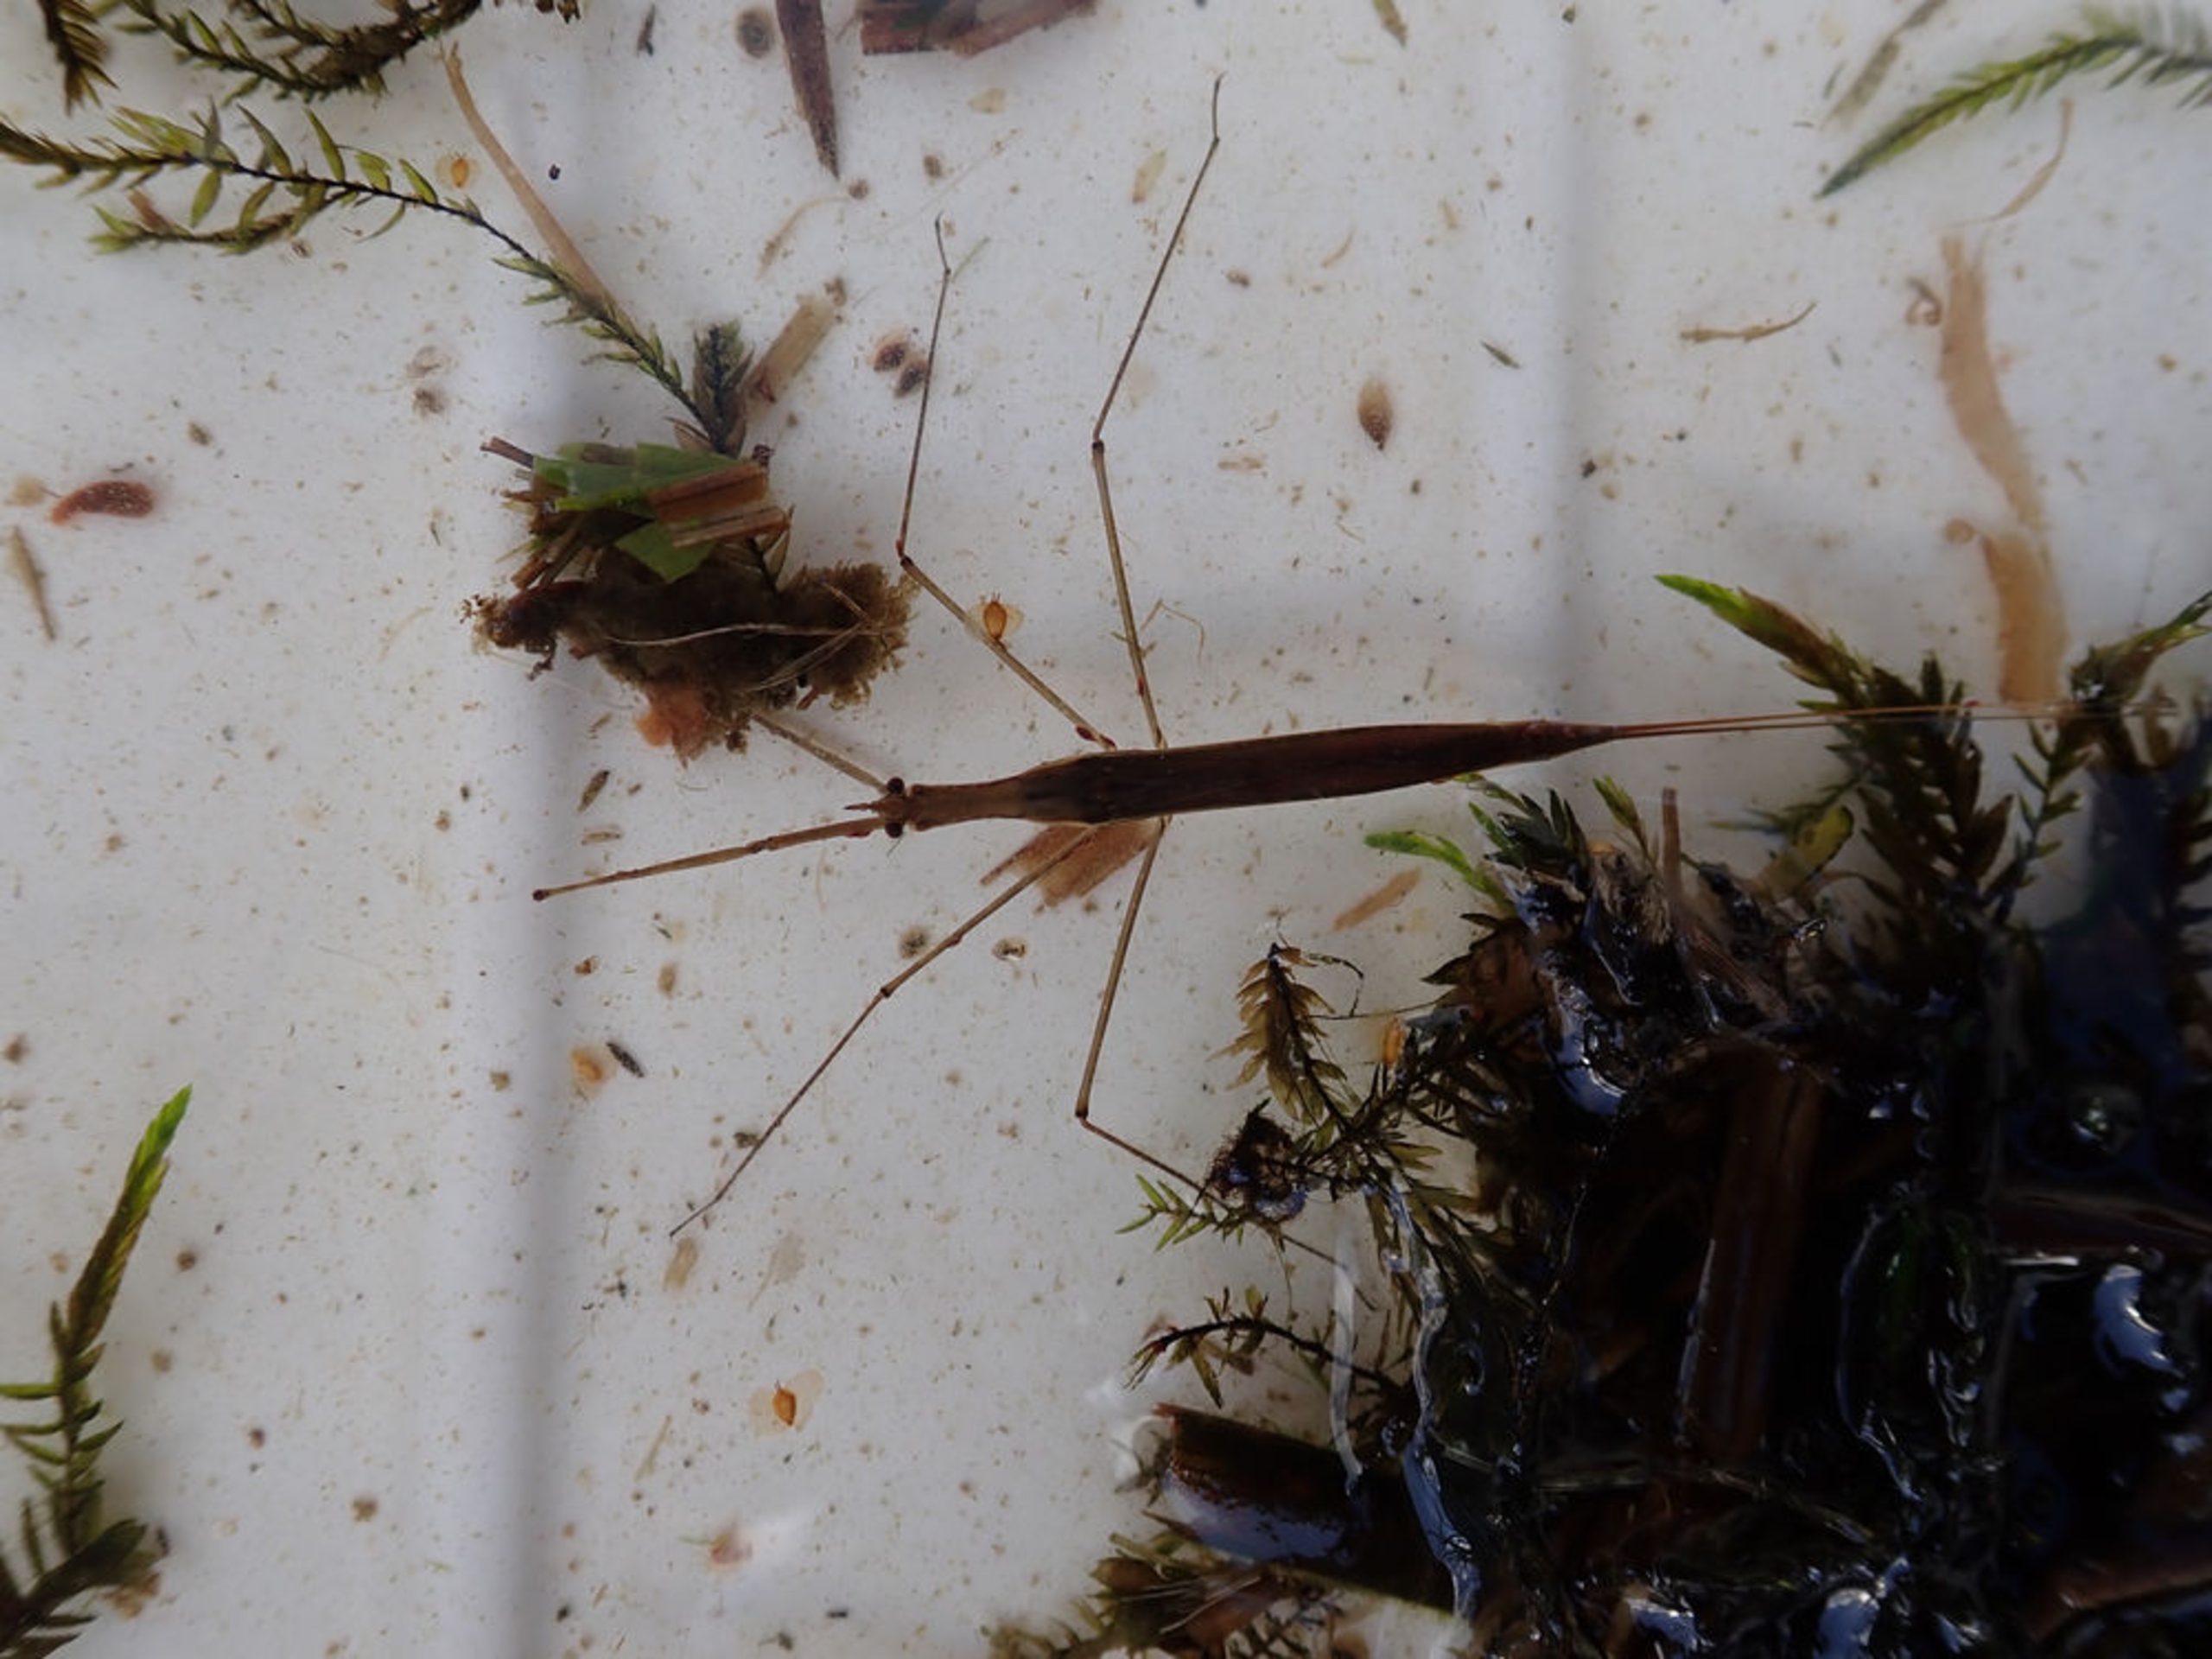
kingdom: Animalia
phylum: Arthropoda
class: Insecta
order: Hemiptera
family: Nepidae
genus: Ranatra
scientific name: Ranatra linearis
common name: Stavtæge
